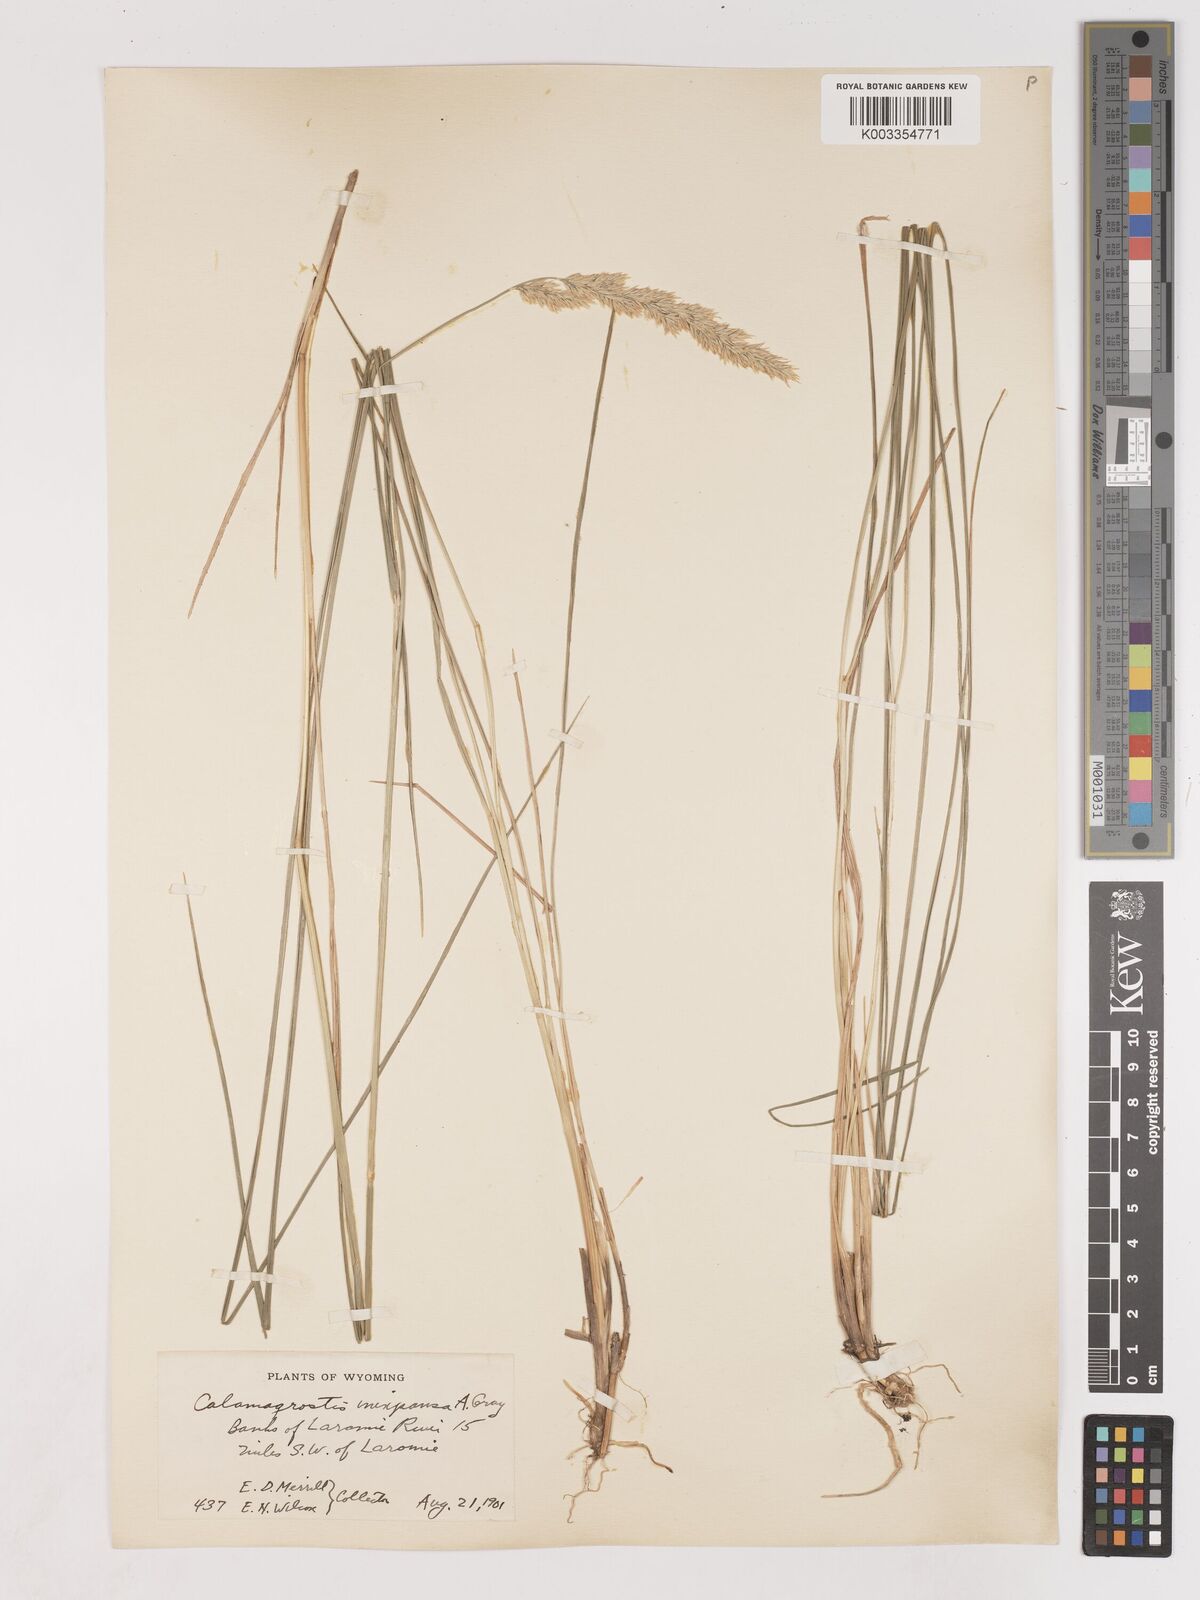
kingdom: Plantae
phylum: Tracheophyta
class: Liliopsida
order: Poales
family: Poaceae
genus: Cinnagrostis
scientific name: Cinnagrostis recta
